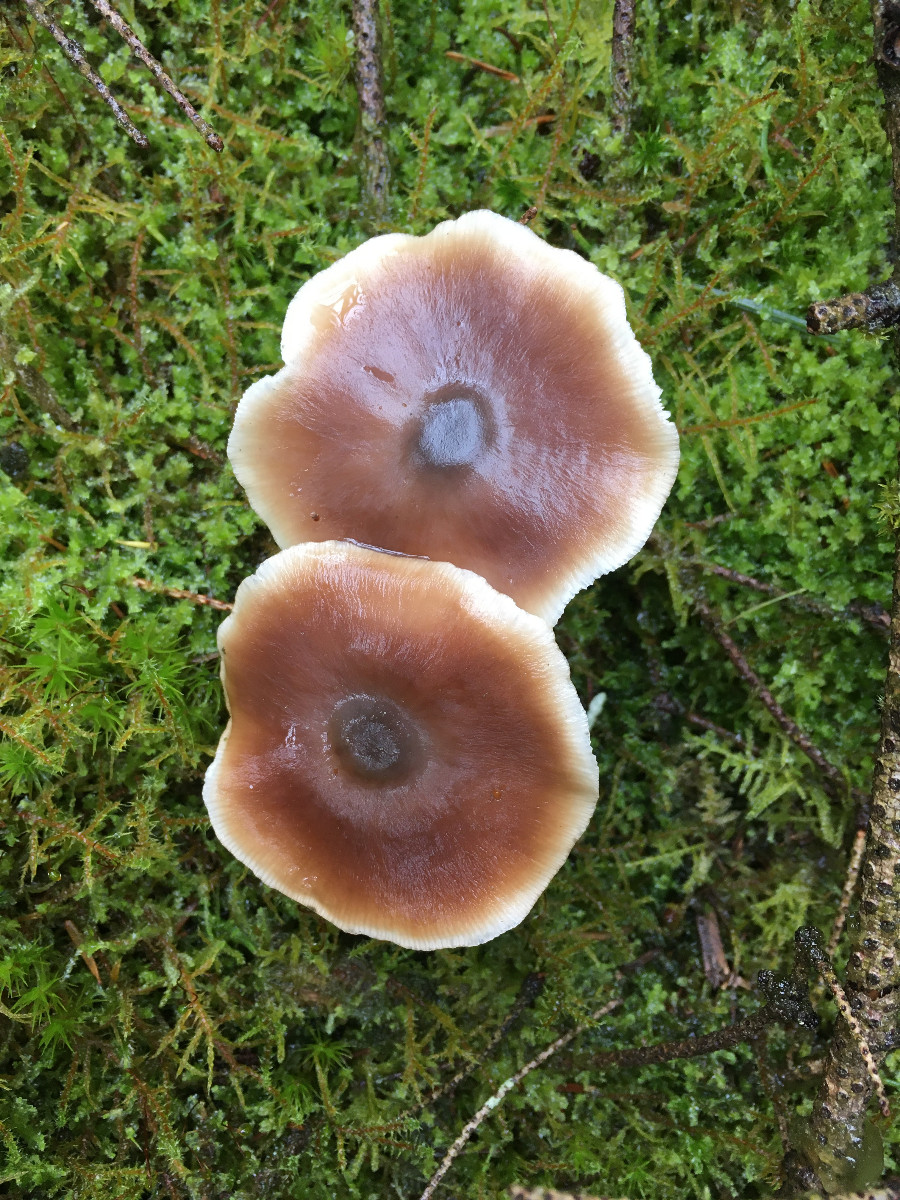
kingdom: Fungi
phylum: Basidiomycota
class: Agaricomycetes
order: Agaricales
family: Omphalotaceae
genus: Rhodocollybia
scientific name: Rhodocollybia butyracea
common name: keglestokket fladhat
